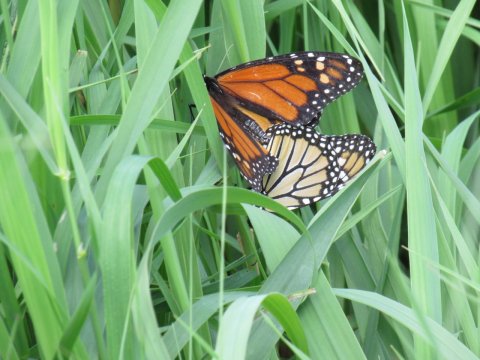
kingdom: Animalia
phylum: Arthropoda
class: Insecta
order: Lepidoptera
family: Nymphalidae
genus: Danaus
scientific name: Danaus plexippus
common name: Monarch
